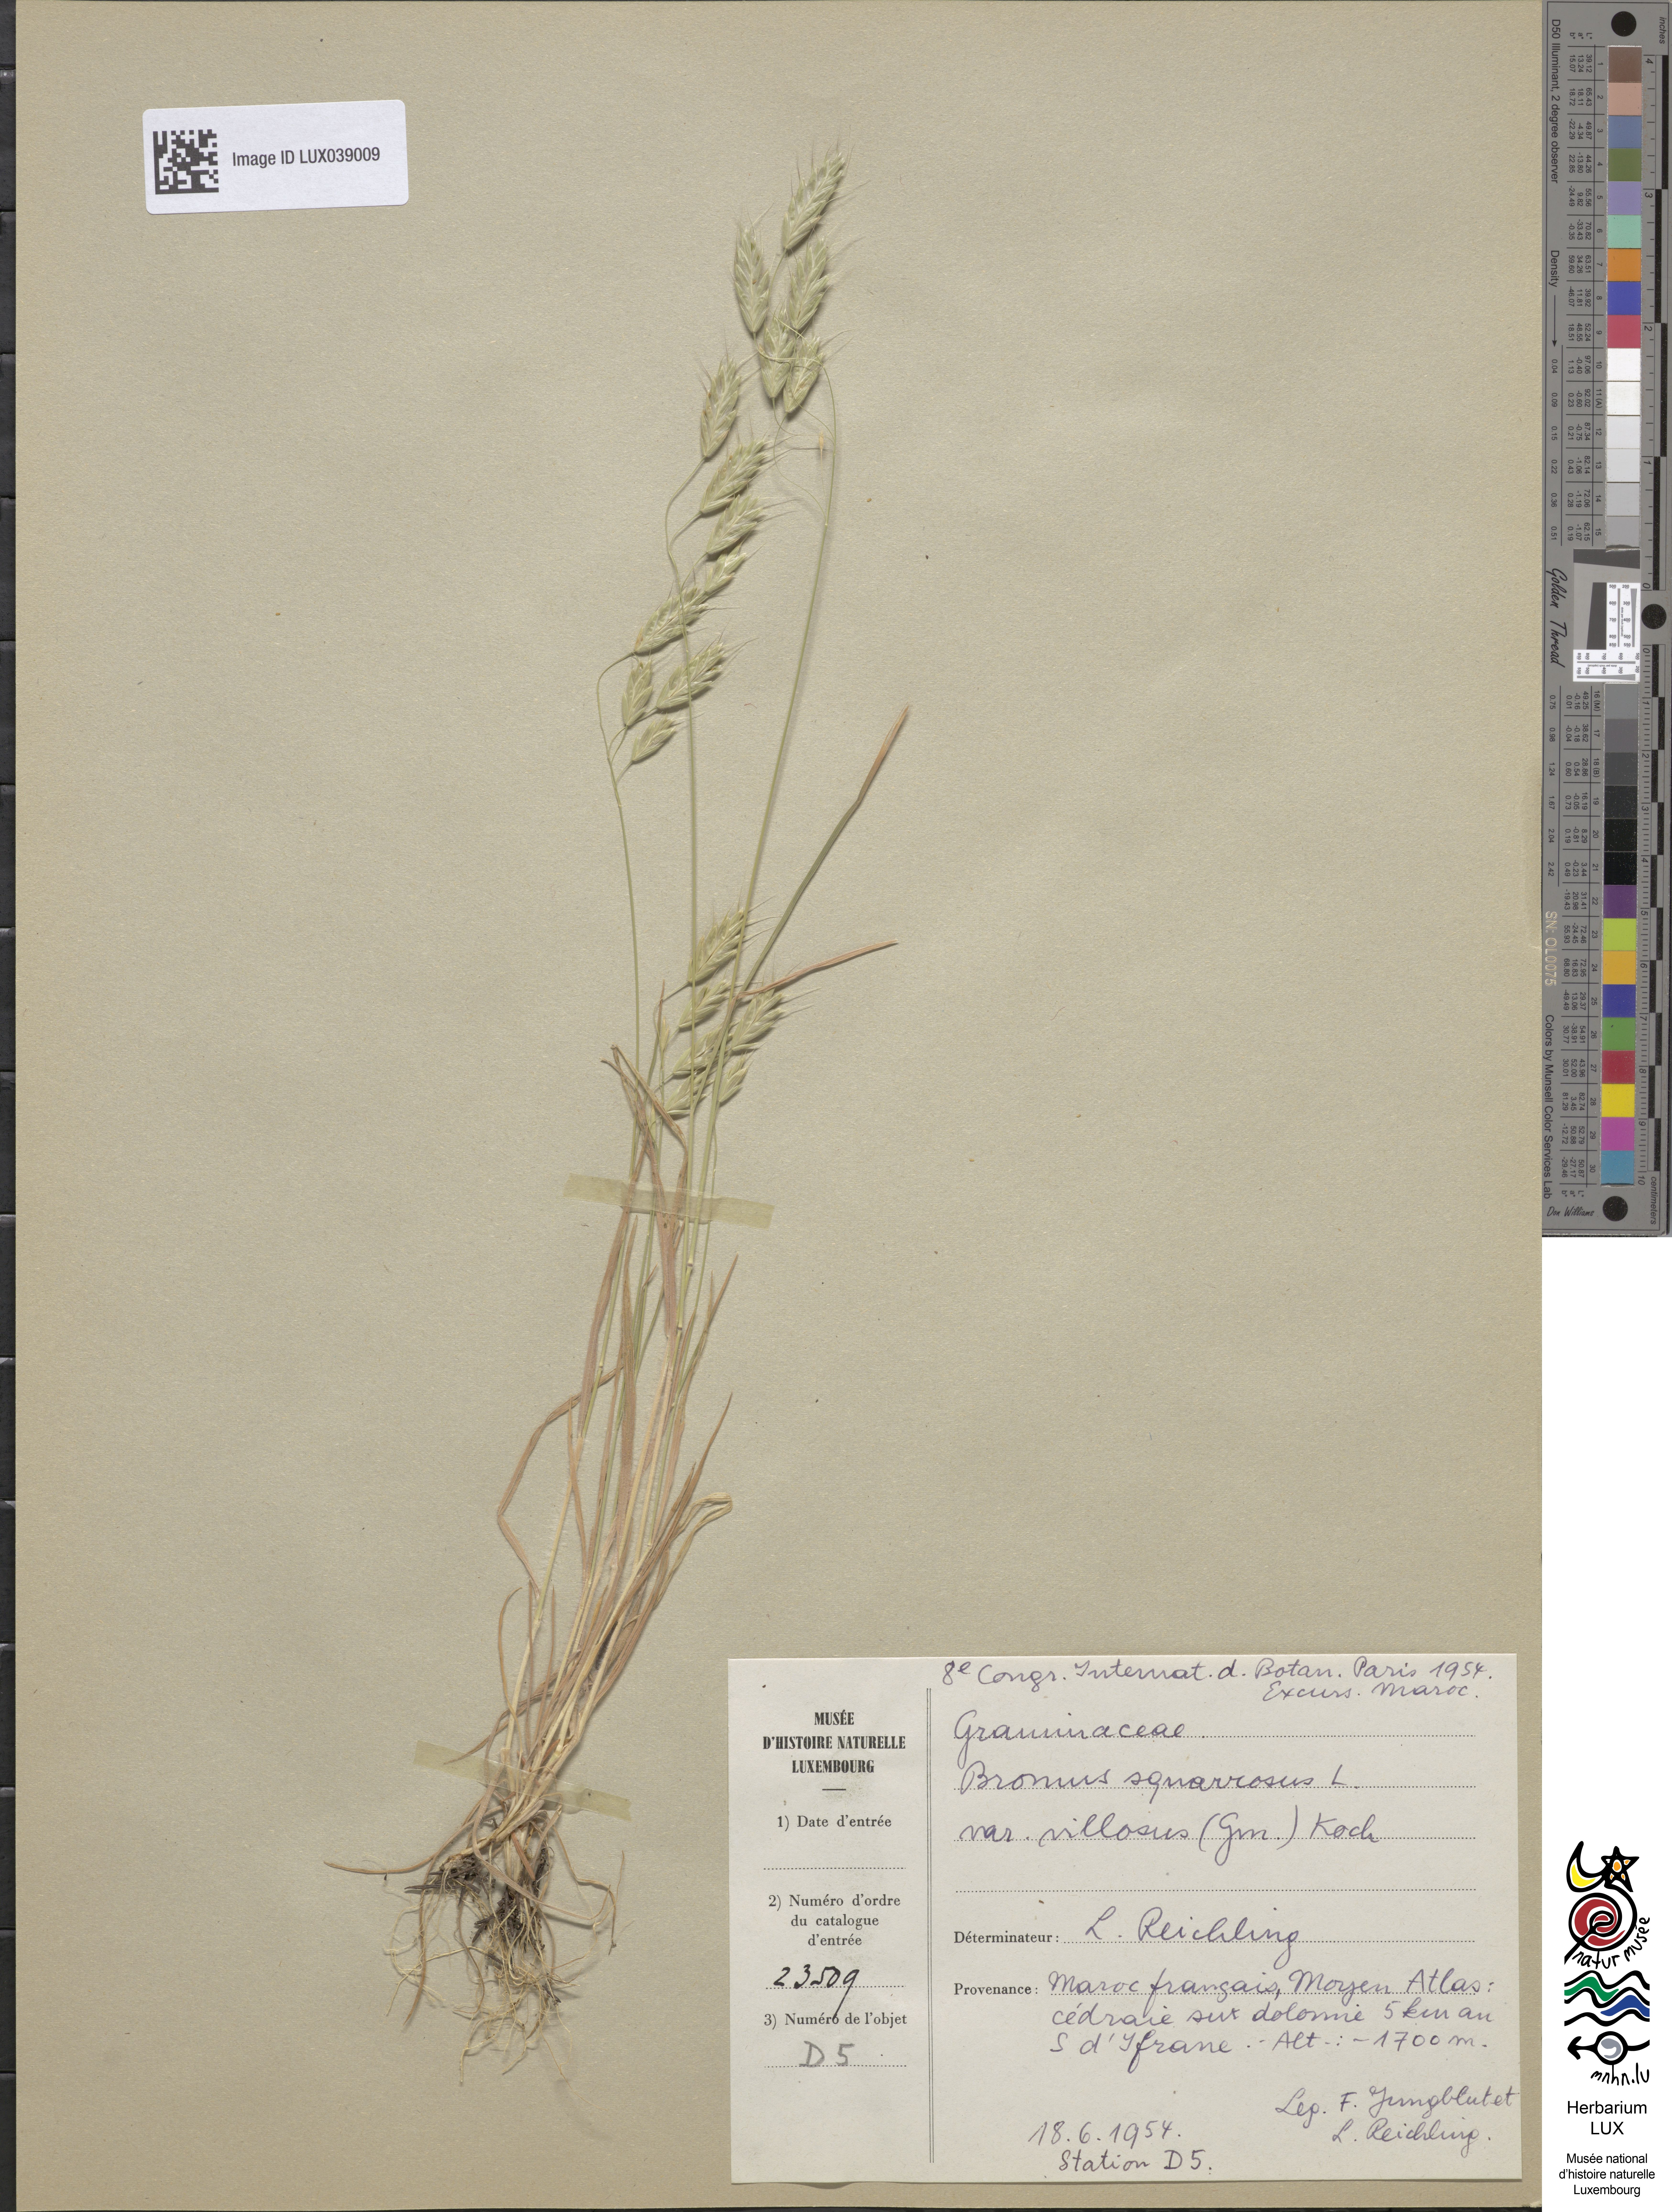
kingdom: Plantae
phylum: Tracheophyta
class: Liliopsida
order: Poales
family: Poaceae
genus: Bromus
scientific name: Bromus squarrosus
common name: Corn brome
